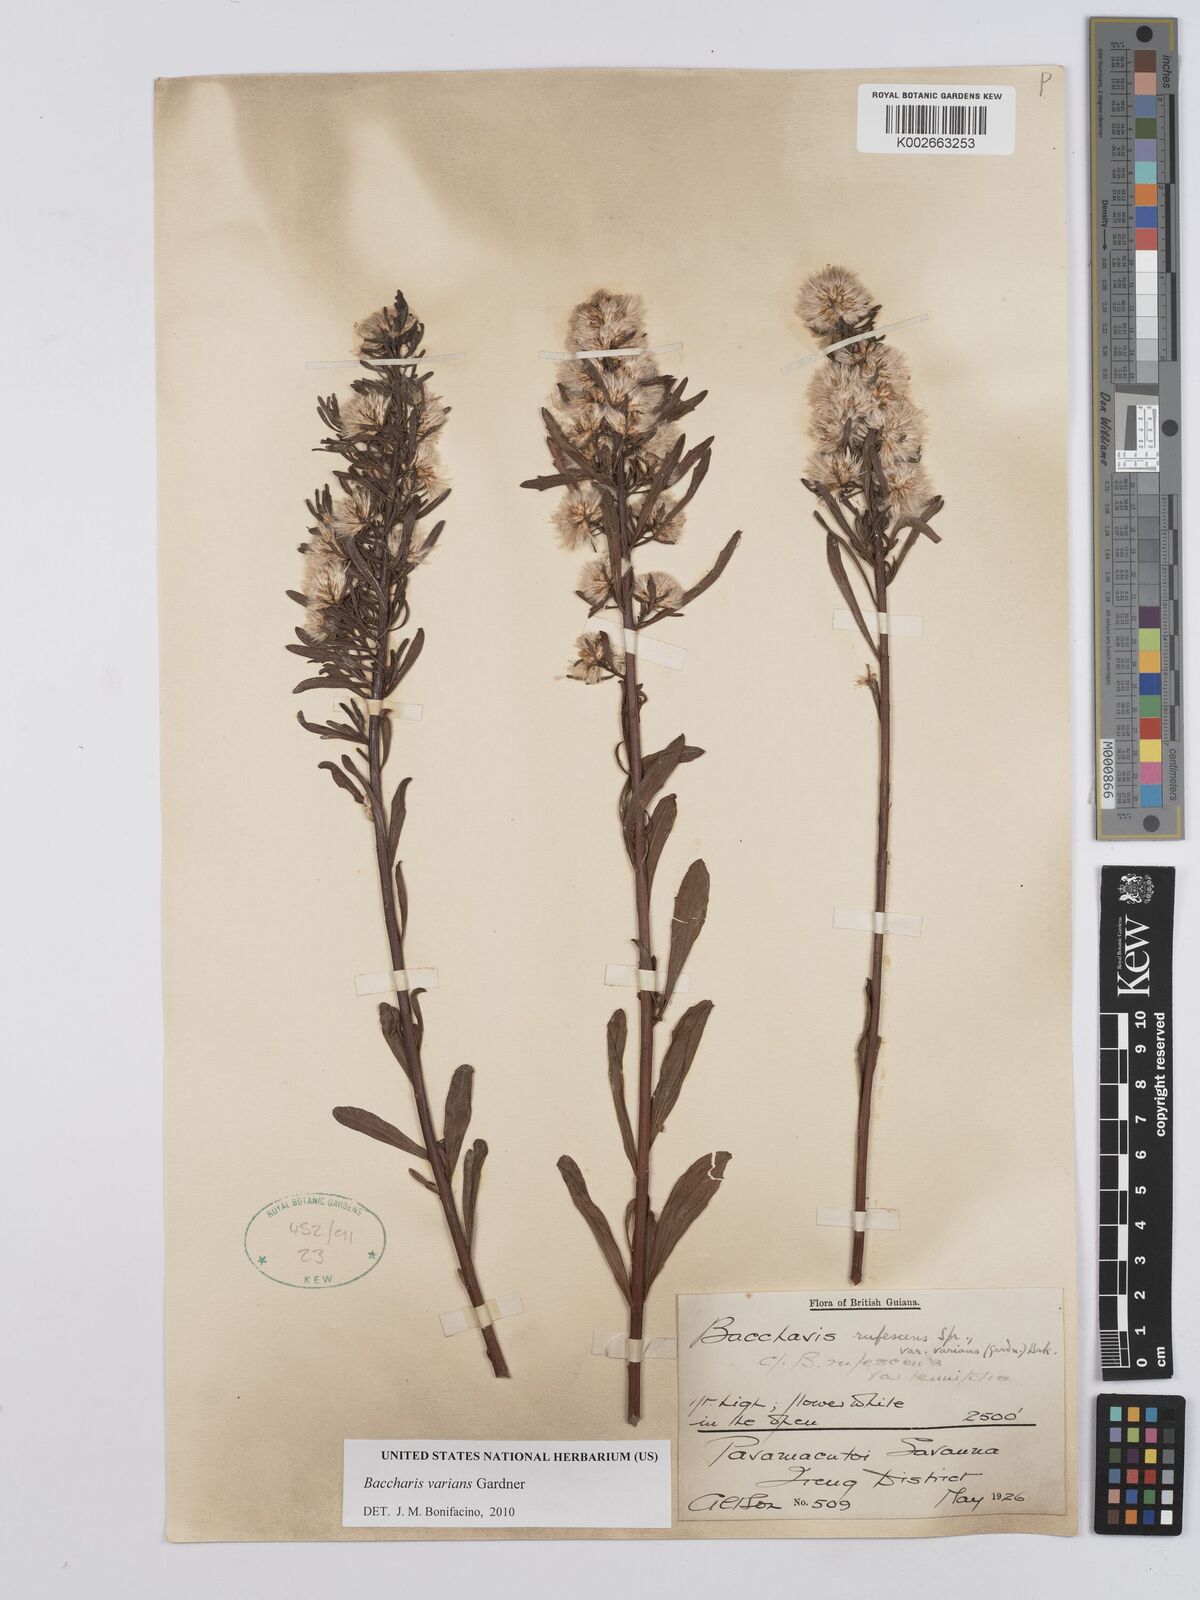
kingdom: Plantae
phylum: Tracheophyta
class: Magnoliopsida
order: Asterales
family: Asteraceae
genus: Baccharis
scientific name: Baccharis varians
